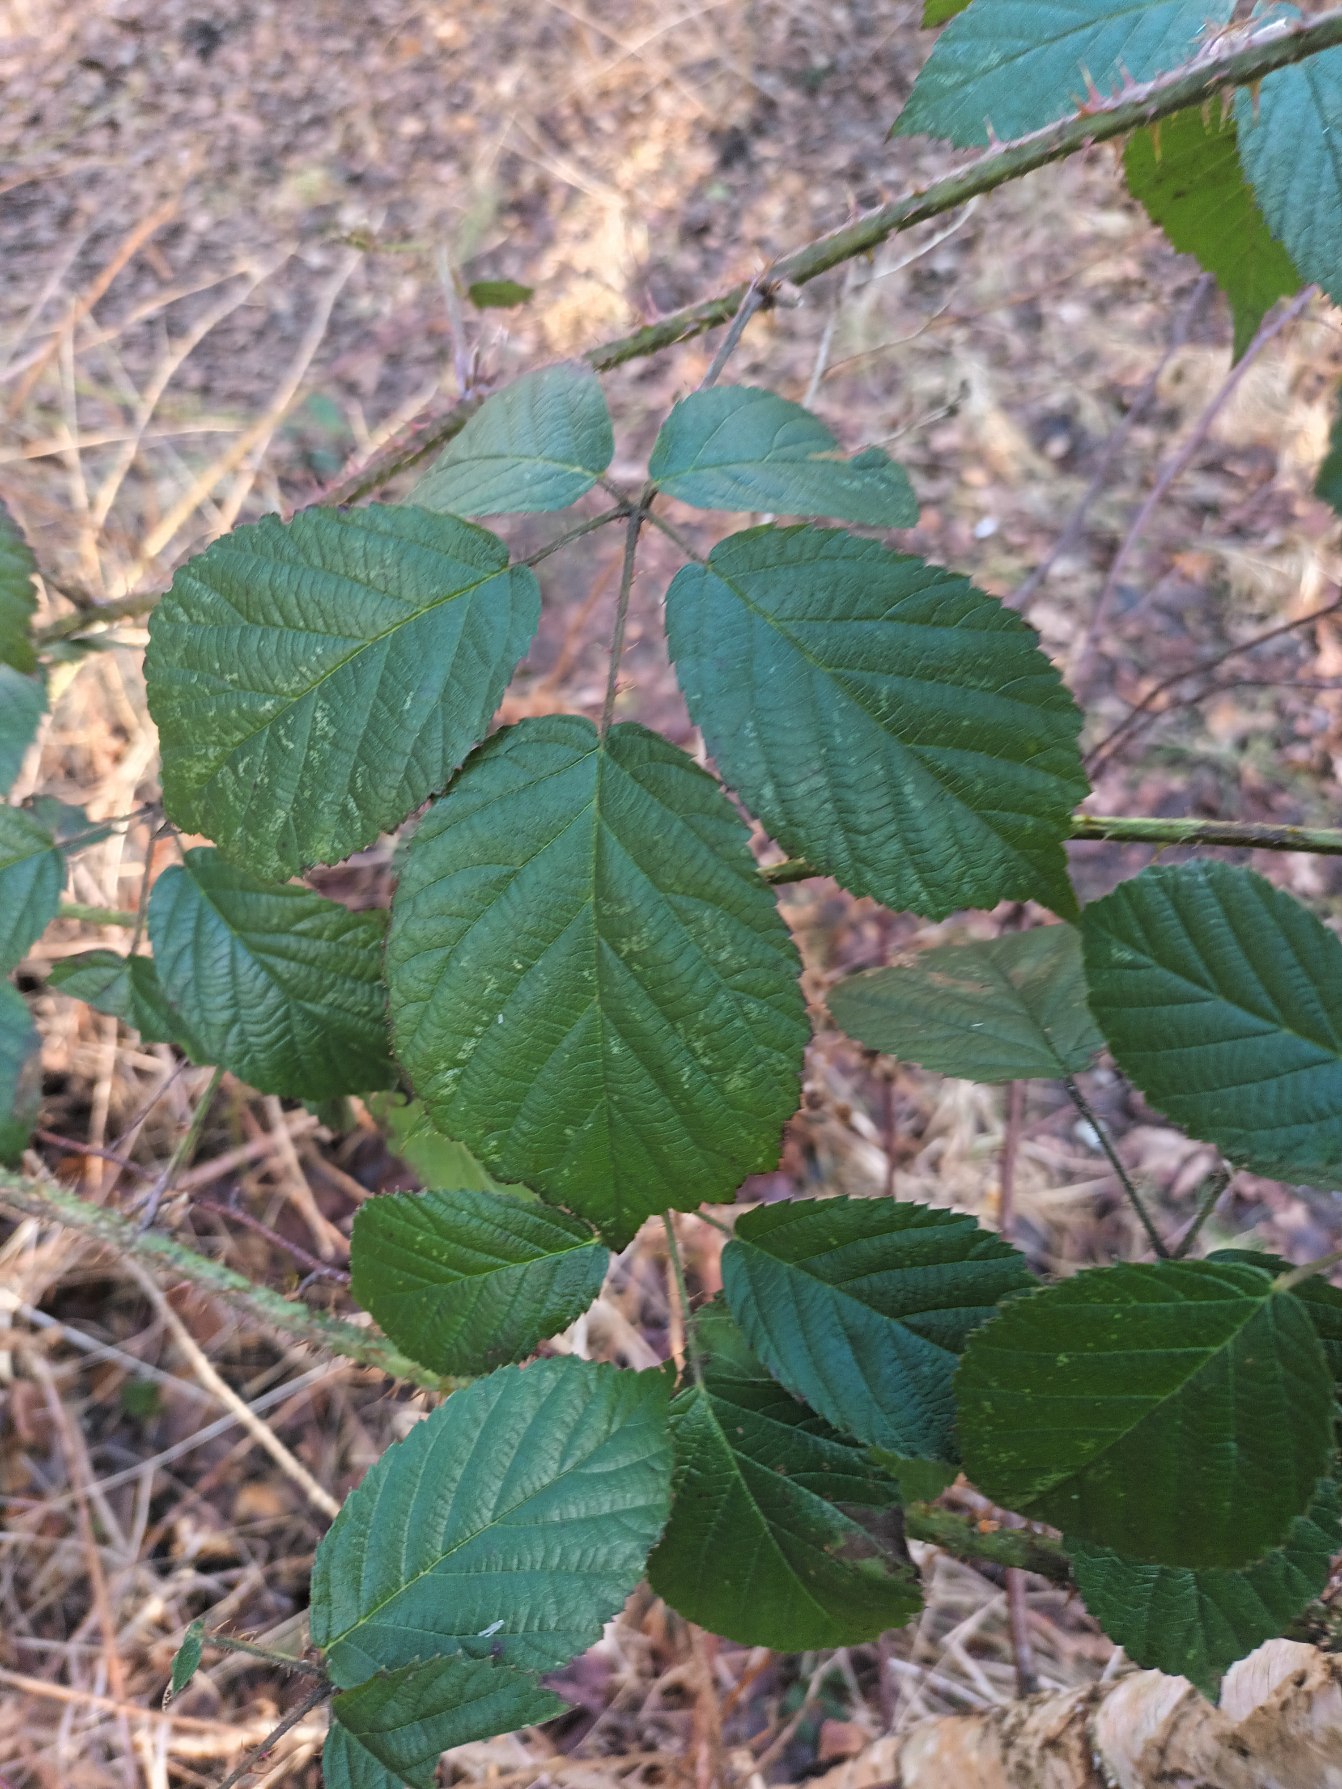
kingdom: Plantae
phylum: Tracheophyta
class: Magnoliopsida
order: Rosales
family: Rosaceae
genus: Rubus
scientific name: Rubus koehleri
